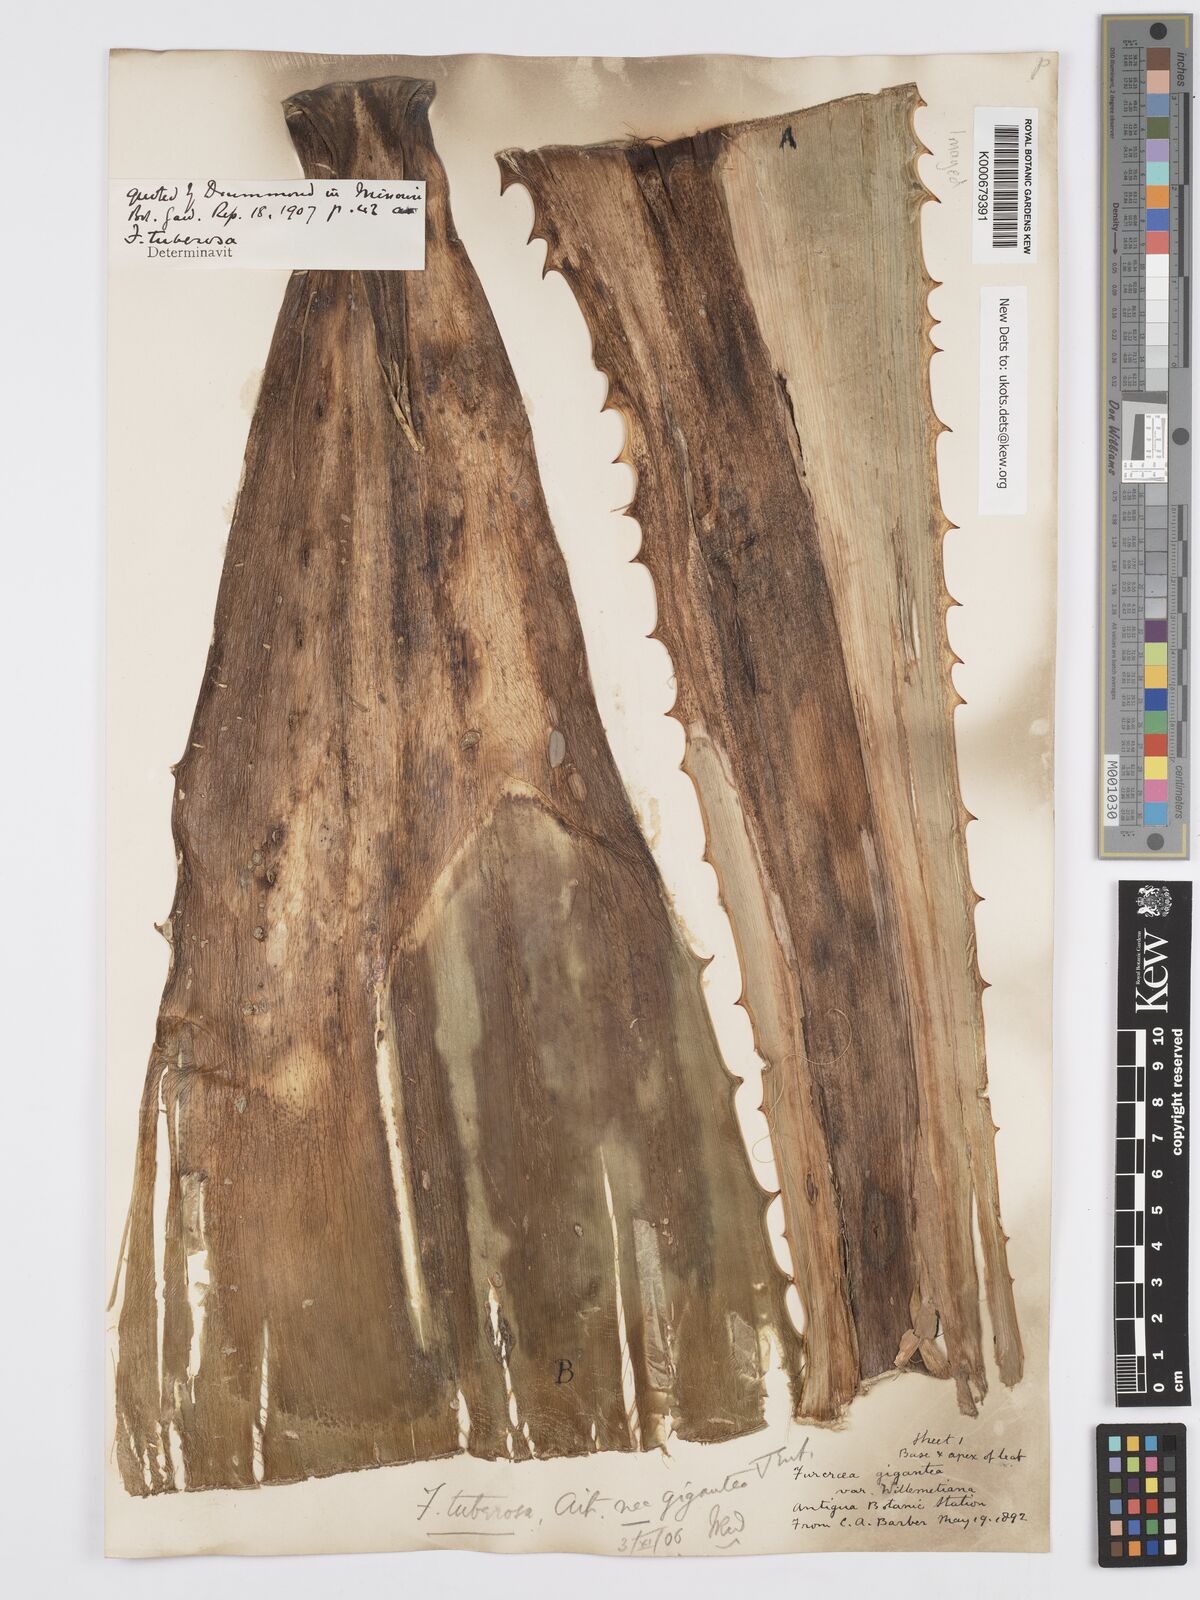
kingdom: Plantae
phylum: Tracheophyta
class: Liliopsida
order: Asparagales
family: Asparagaceae
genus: Furcraea
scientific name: Furcraea tuberosa
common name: Karata
